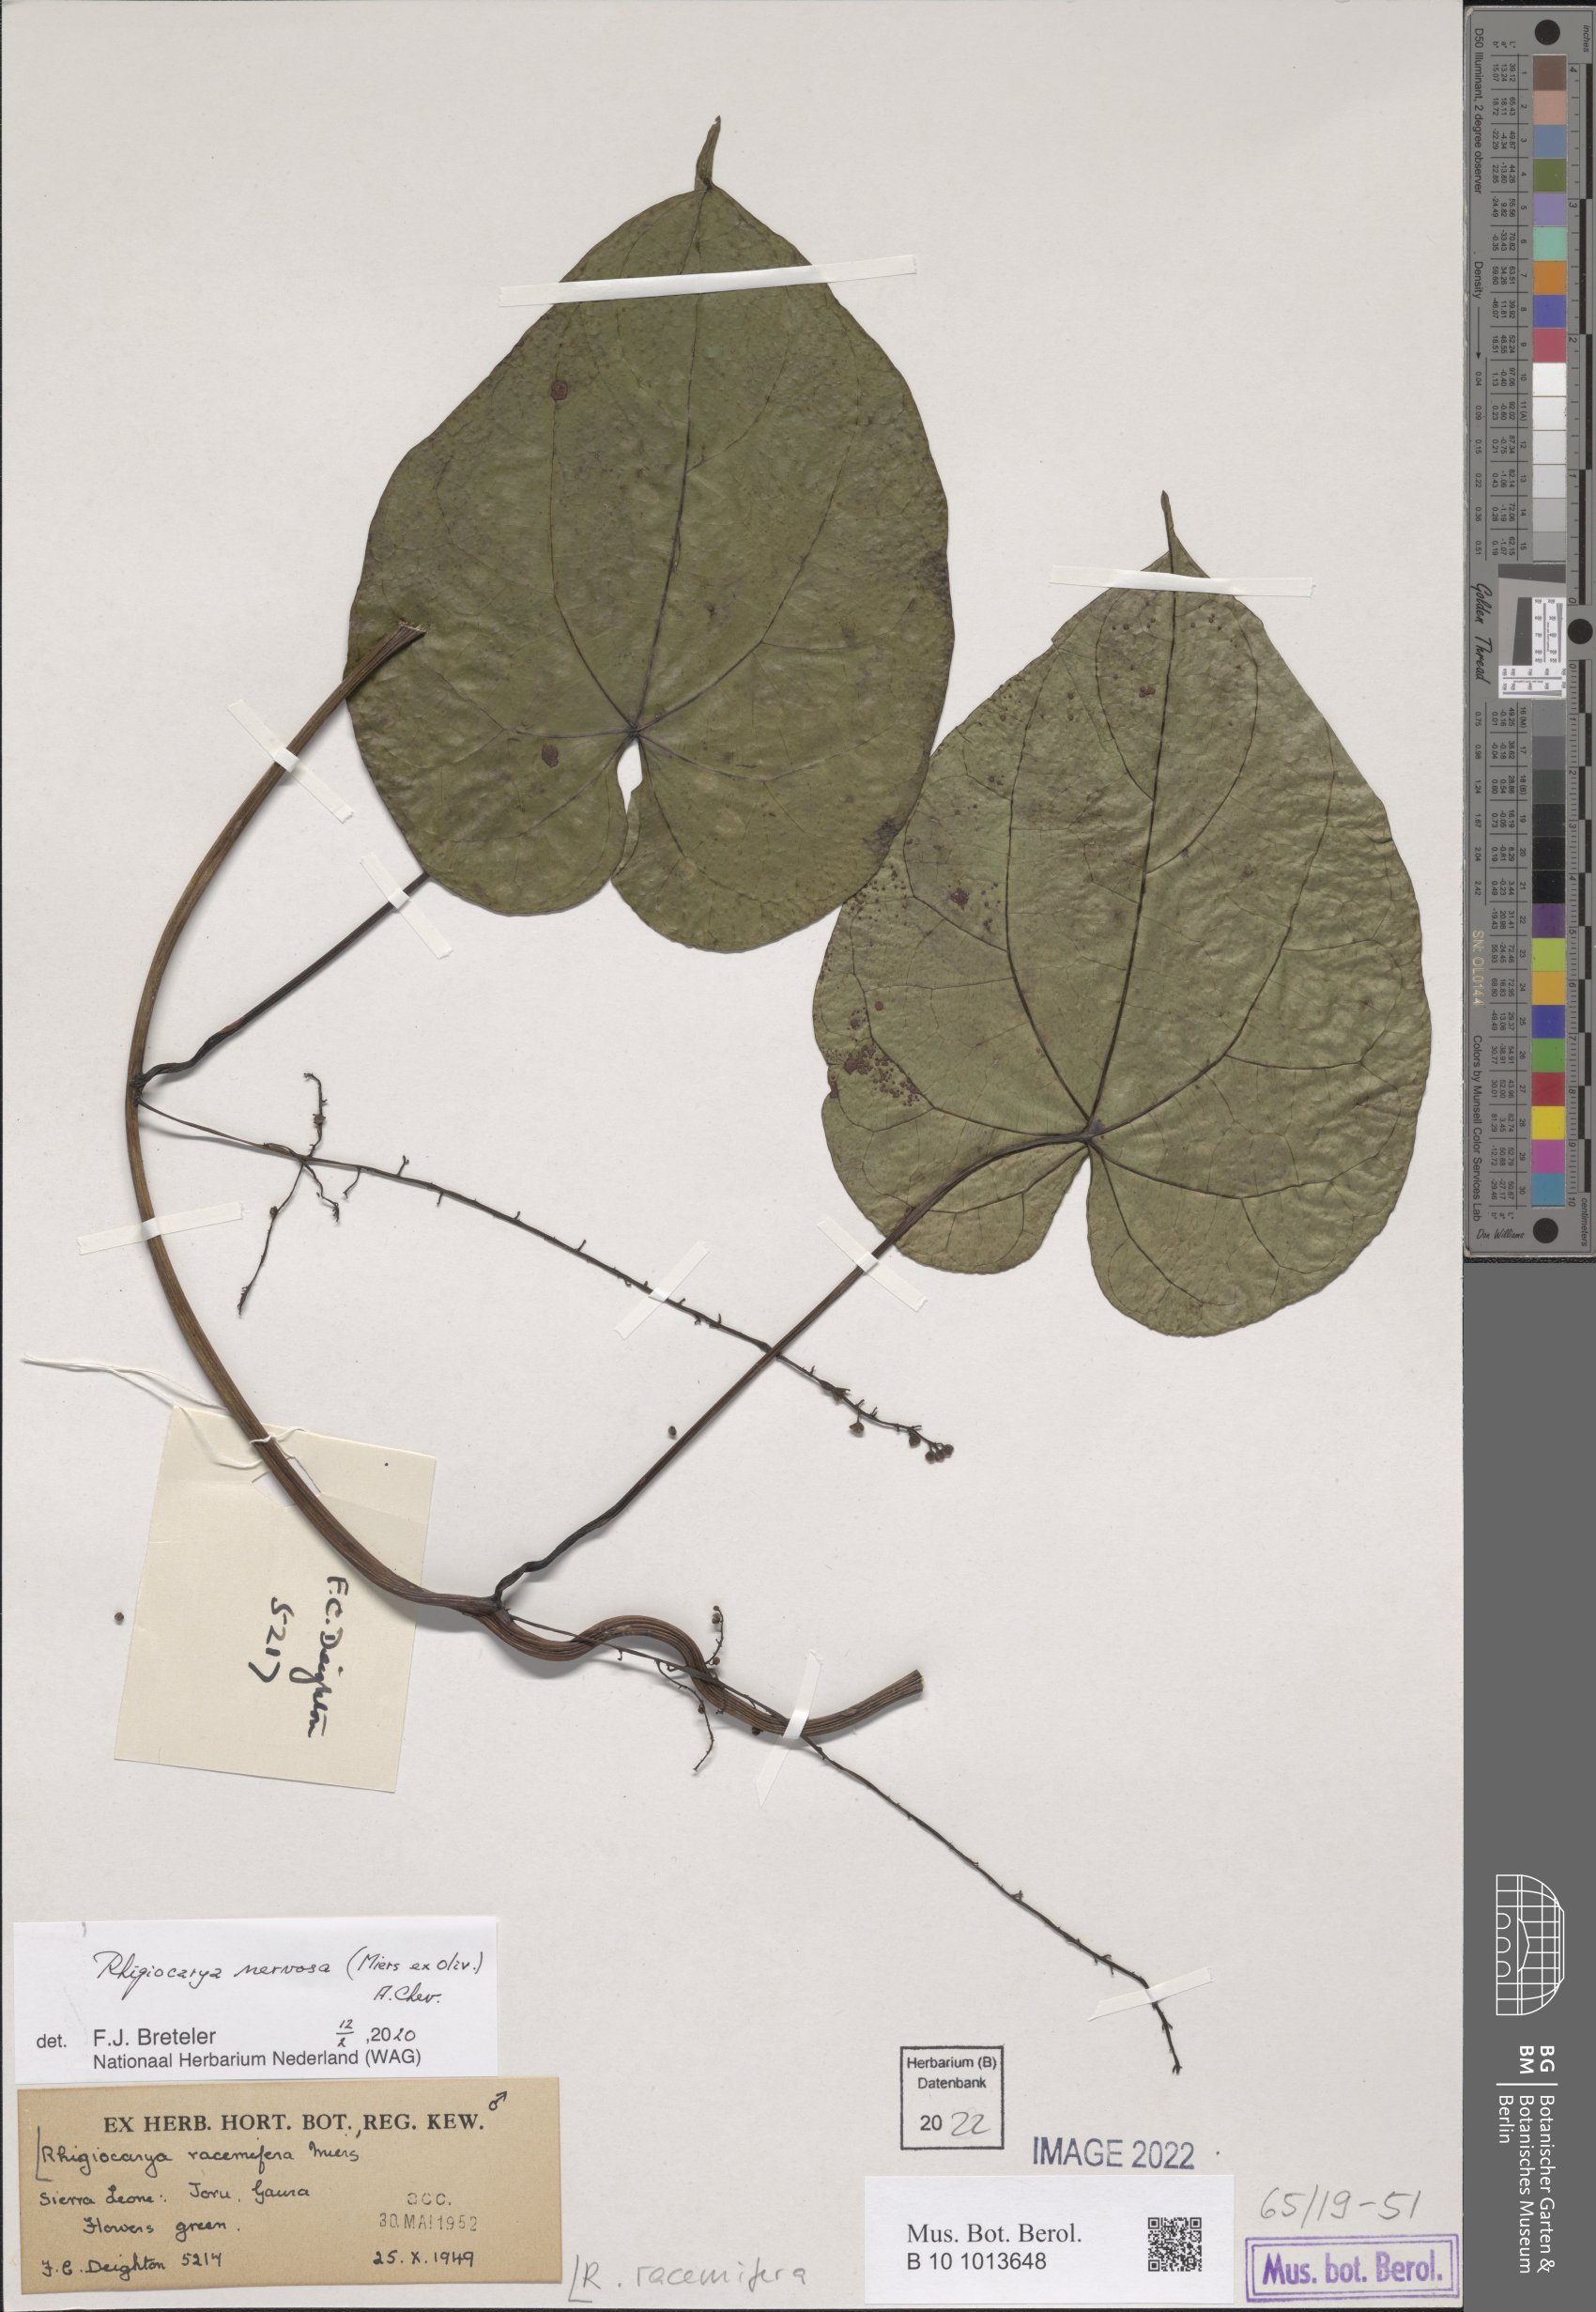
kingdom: Plantae
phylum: Tracheophyta
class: Magnoliopsida
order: Ranunculales
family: Menispermaceae
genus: Rhigiocarya
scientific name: Rhigiocarya racemifera
